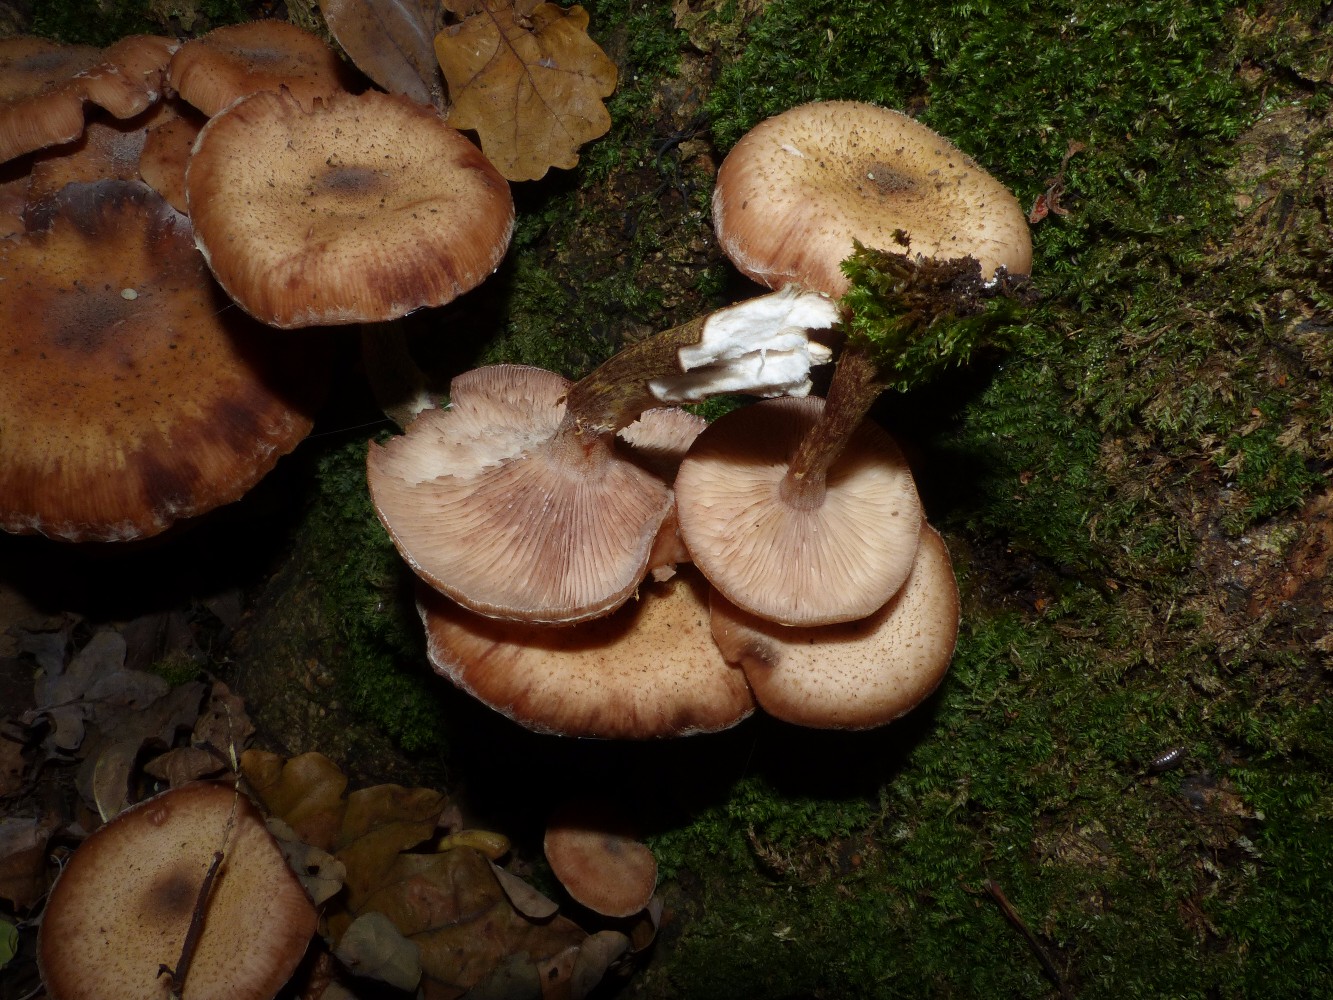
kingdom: Fungi
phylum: Basidiomycota
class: Agaricomycetes
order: Agaricales
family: Physalacriaceae
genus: Armillaria
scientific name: Armillaria
